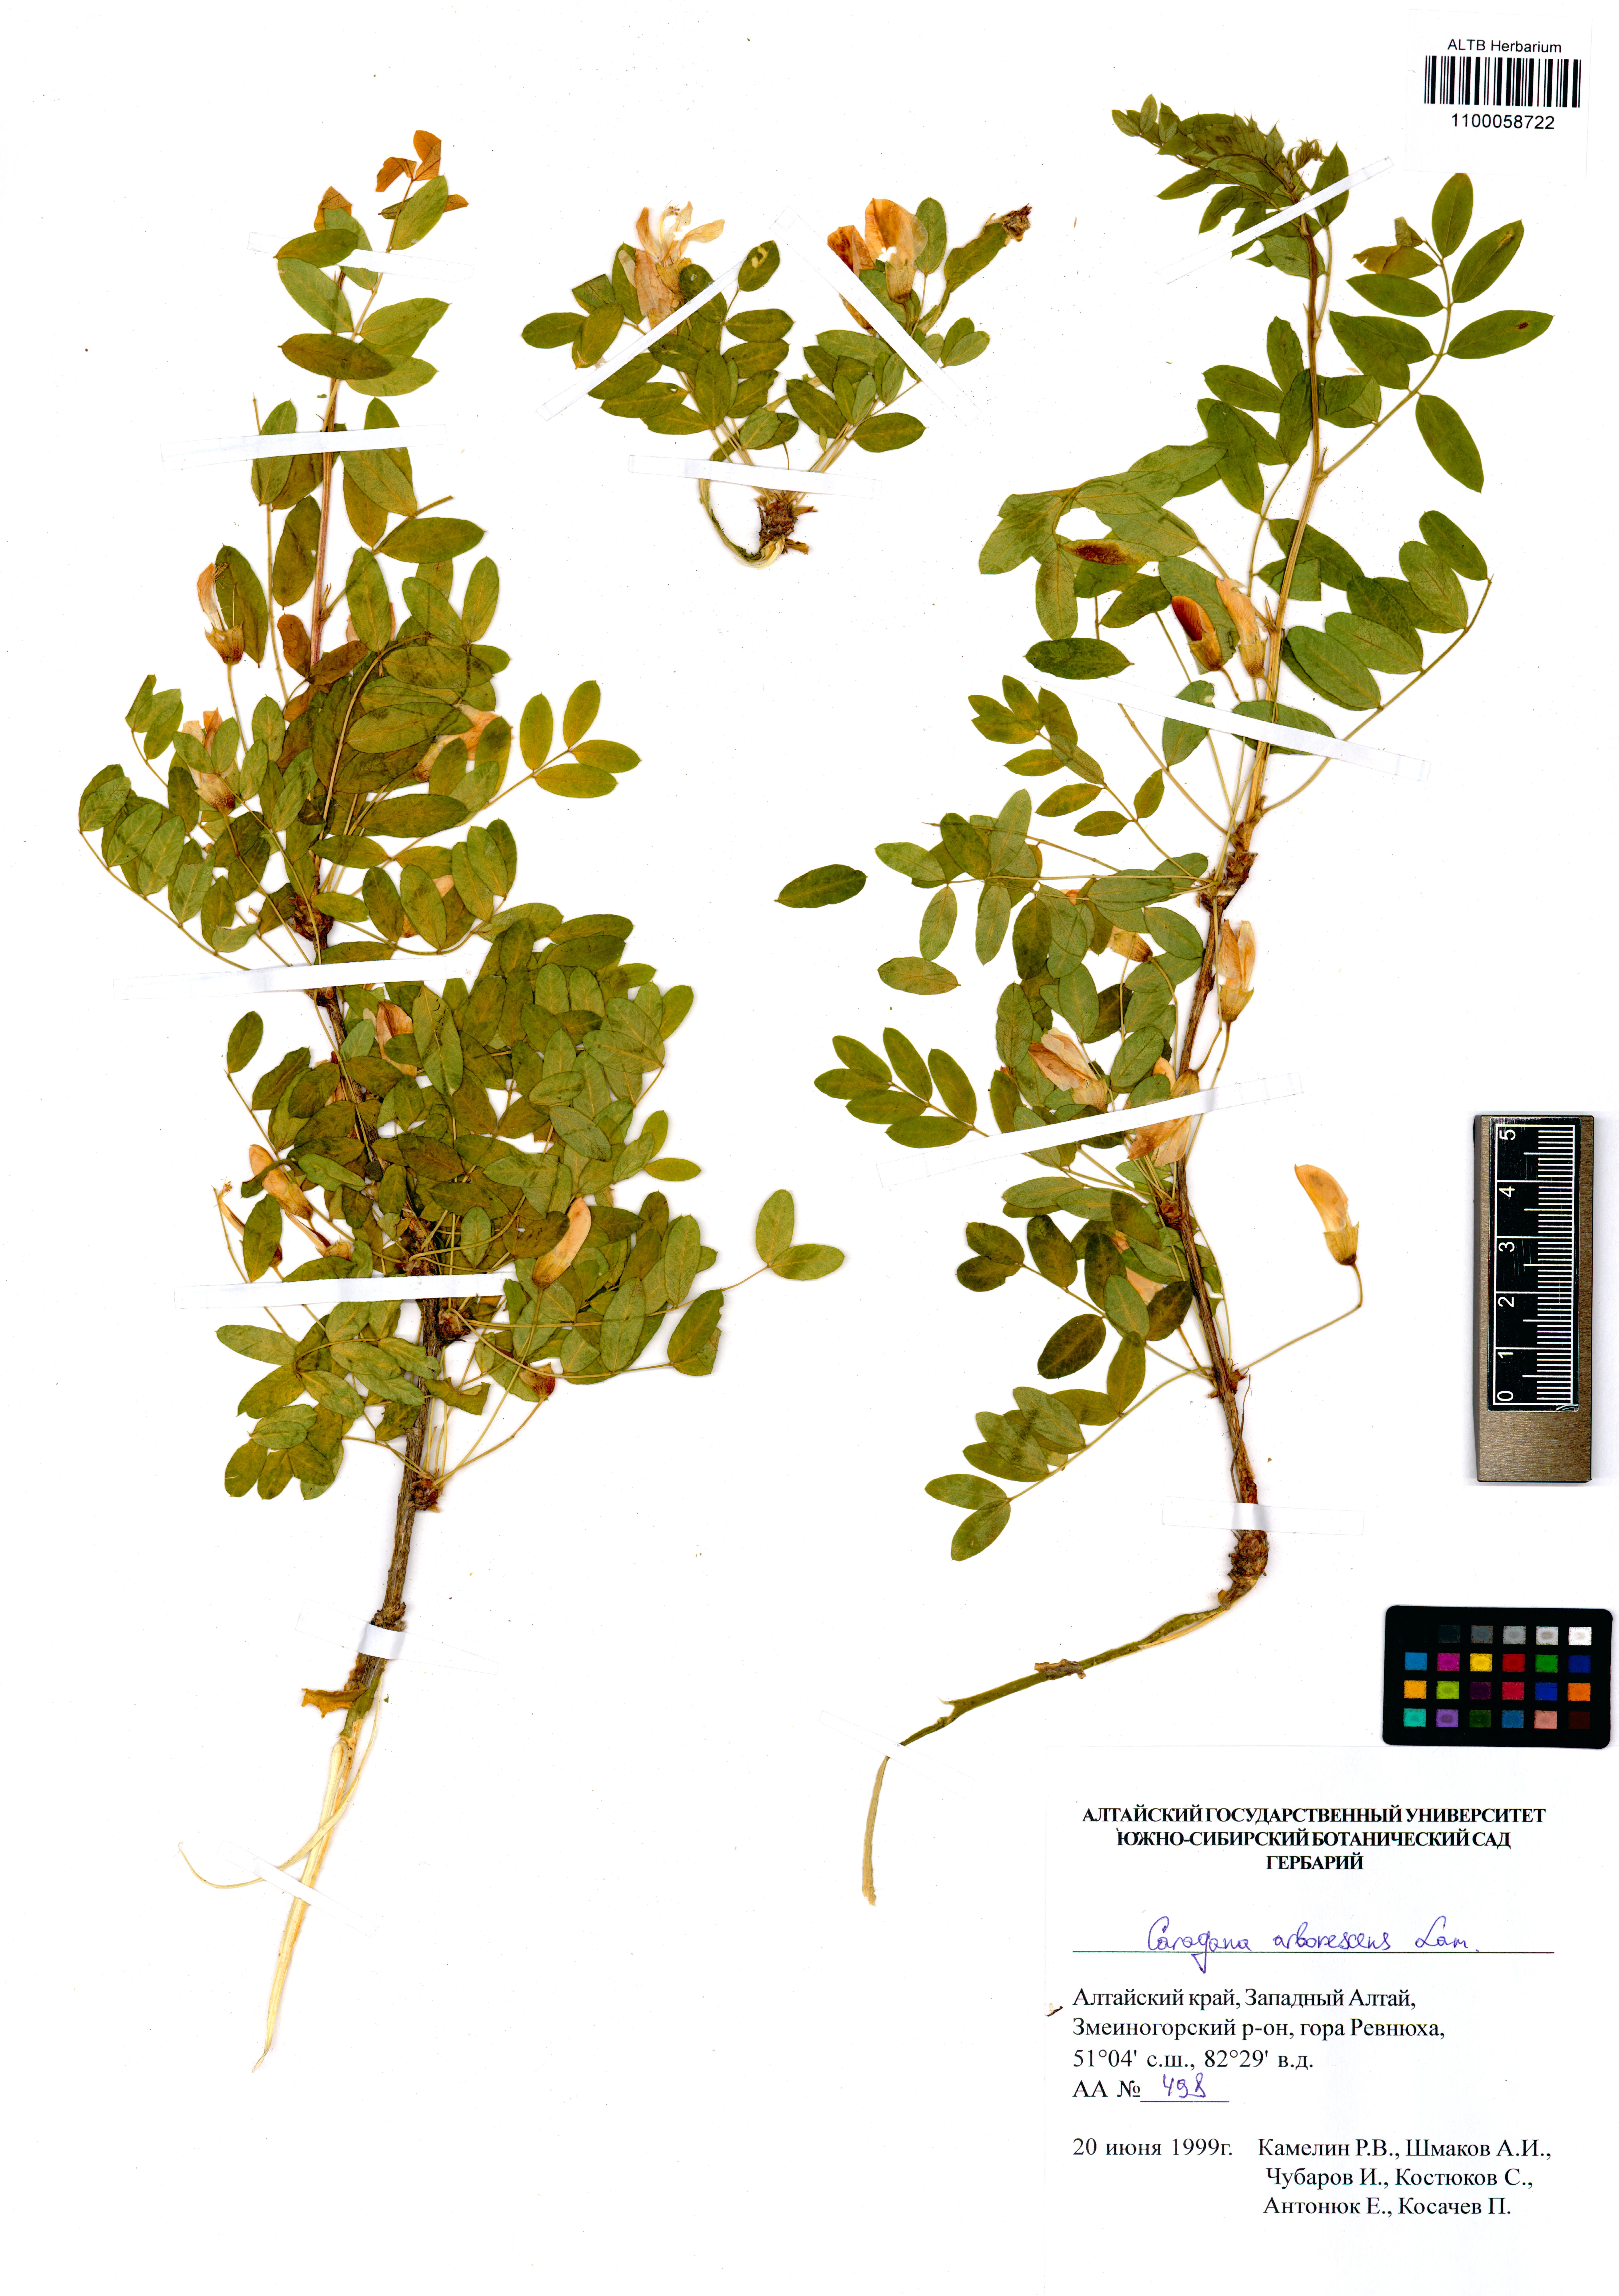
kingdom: Plantae
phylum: Tracheophyta
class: Magnoliopsida
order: Fabales
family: Fabaceae
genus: Caragana
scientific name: Caragana arborescens
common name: Siberian peashrub
